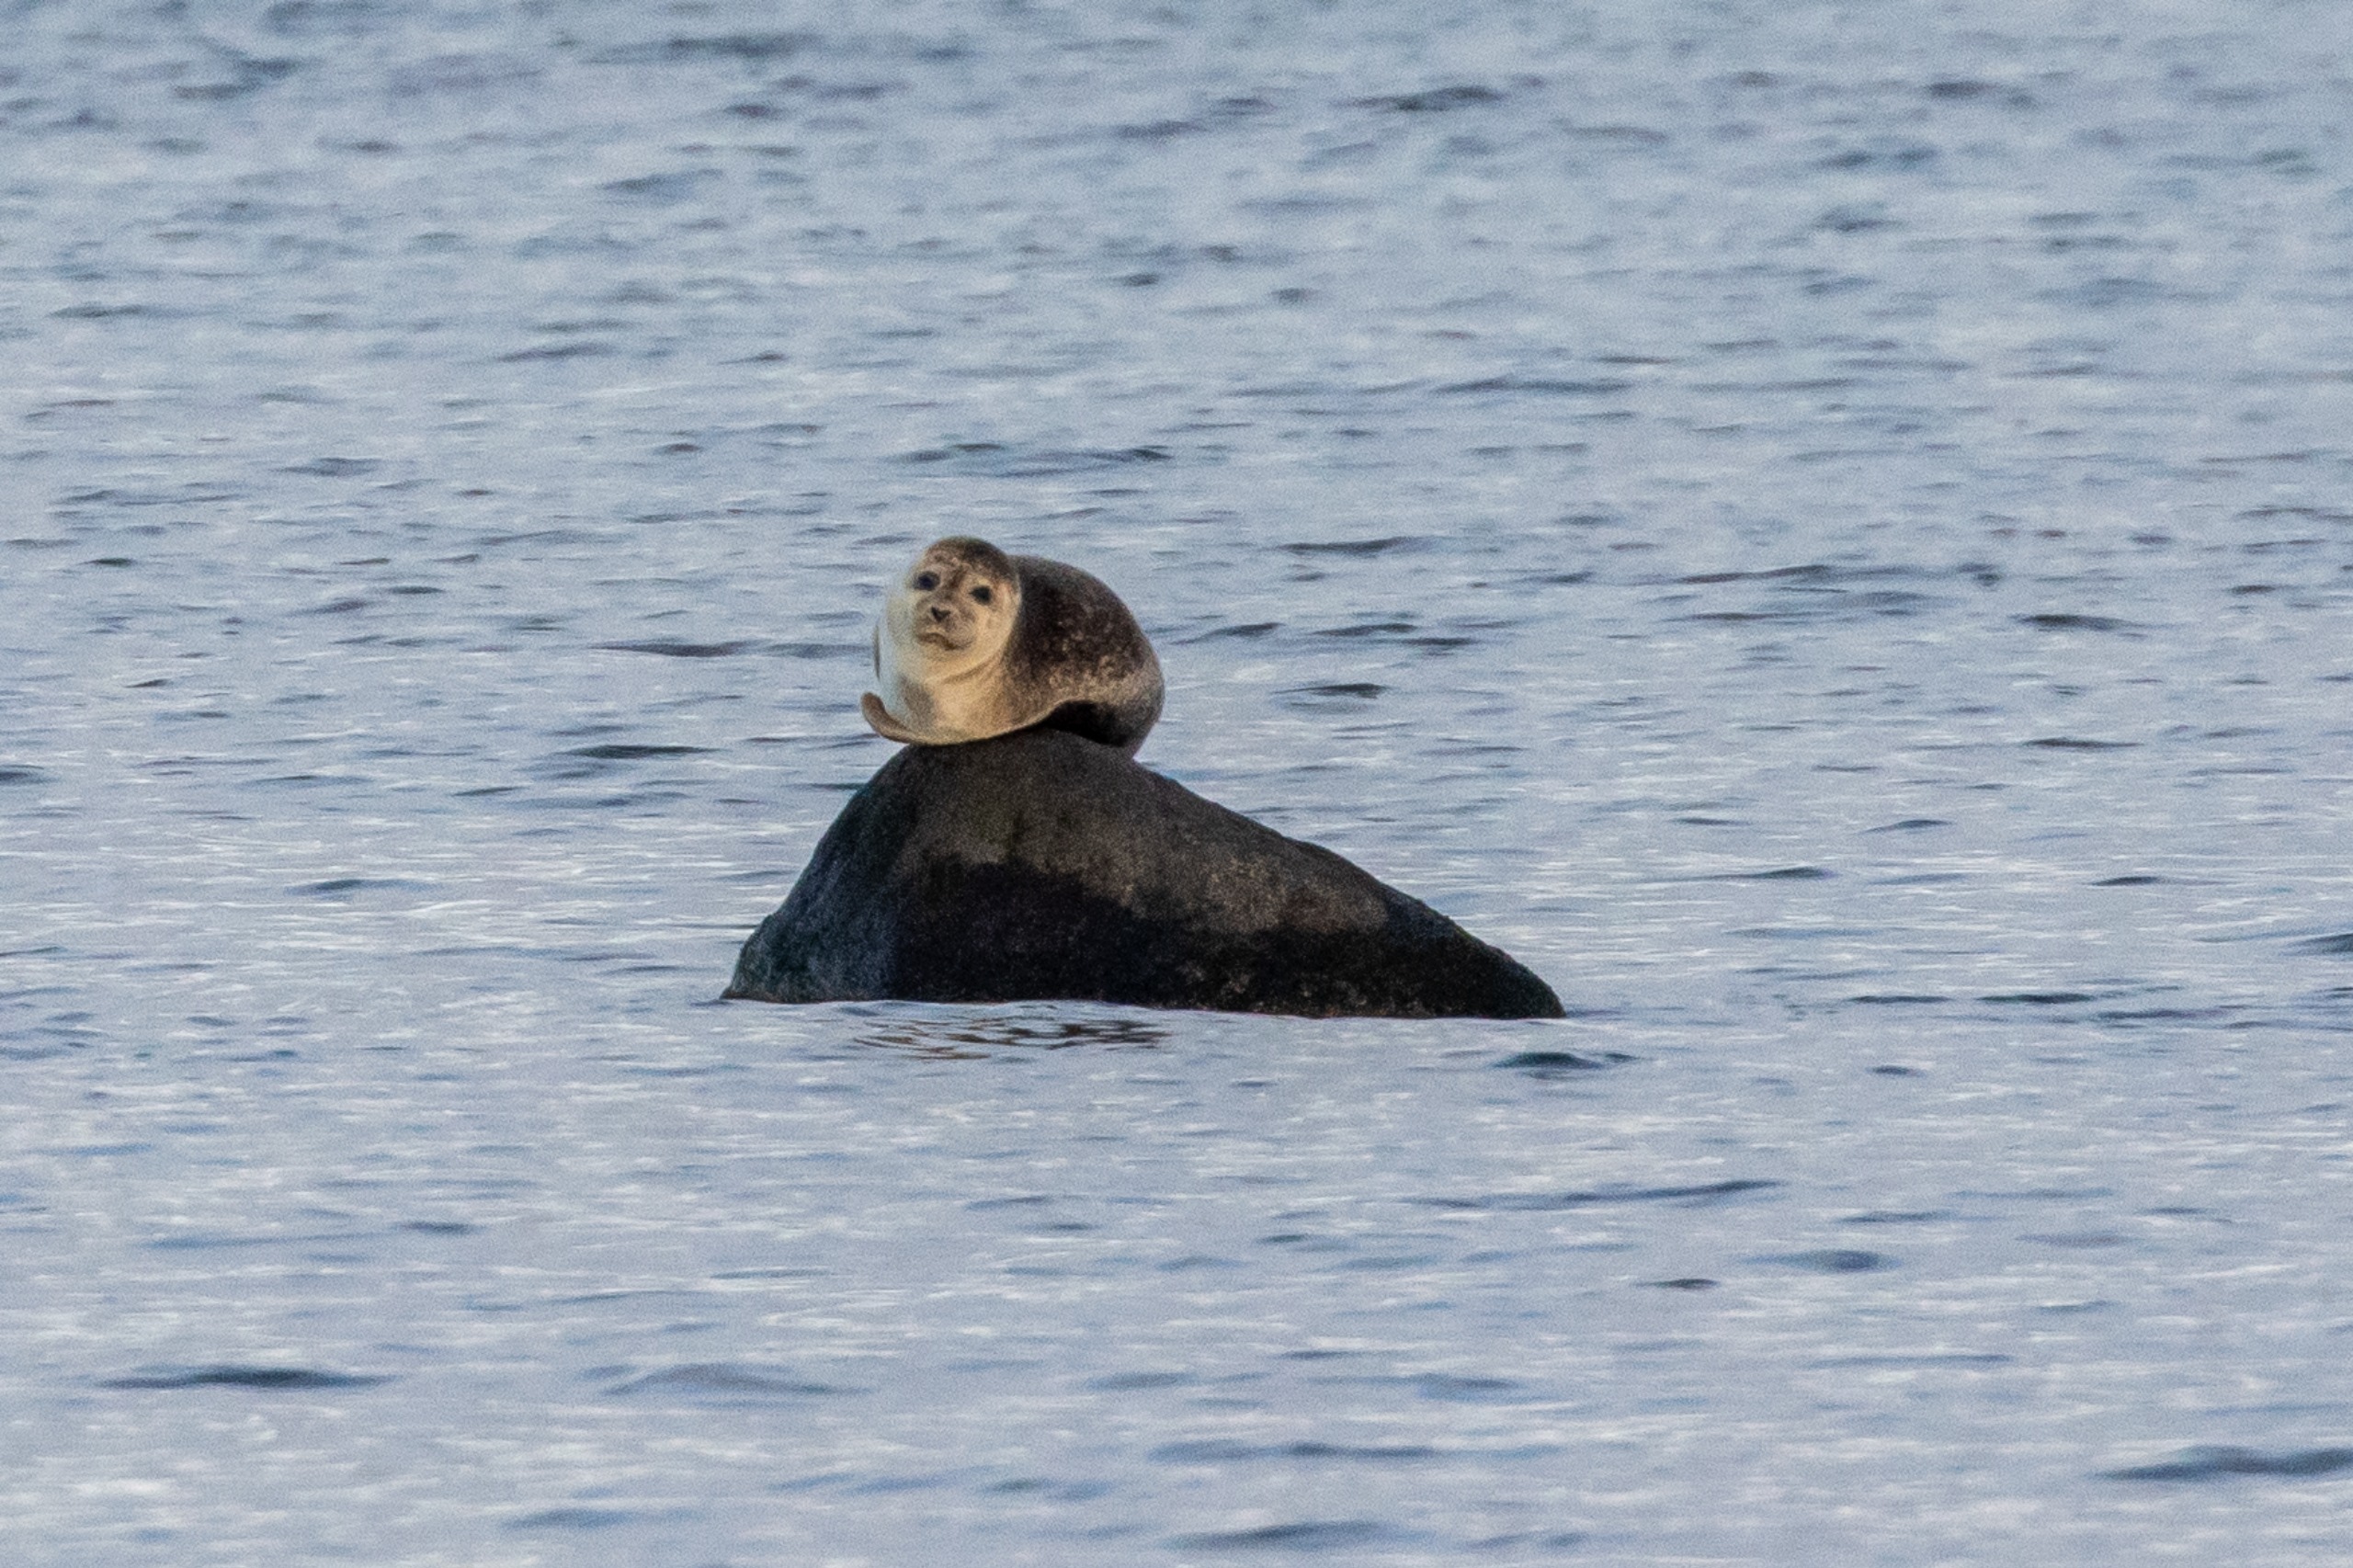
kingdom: Animalia
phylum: Chordata
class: Mammalia
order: Carnivora
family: Phocidae
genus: Phoca
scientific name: Phoca vitulina
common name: Spættet sæl
